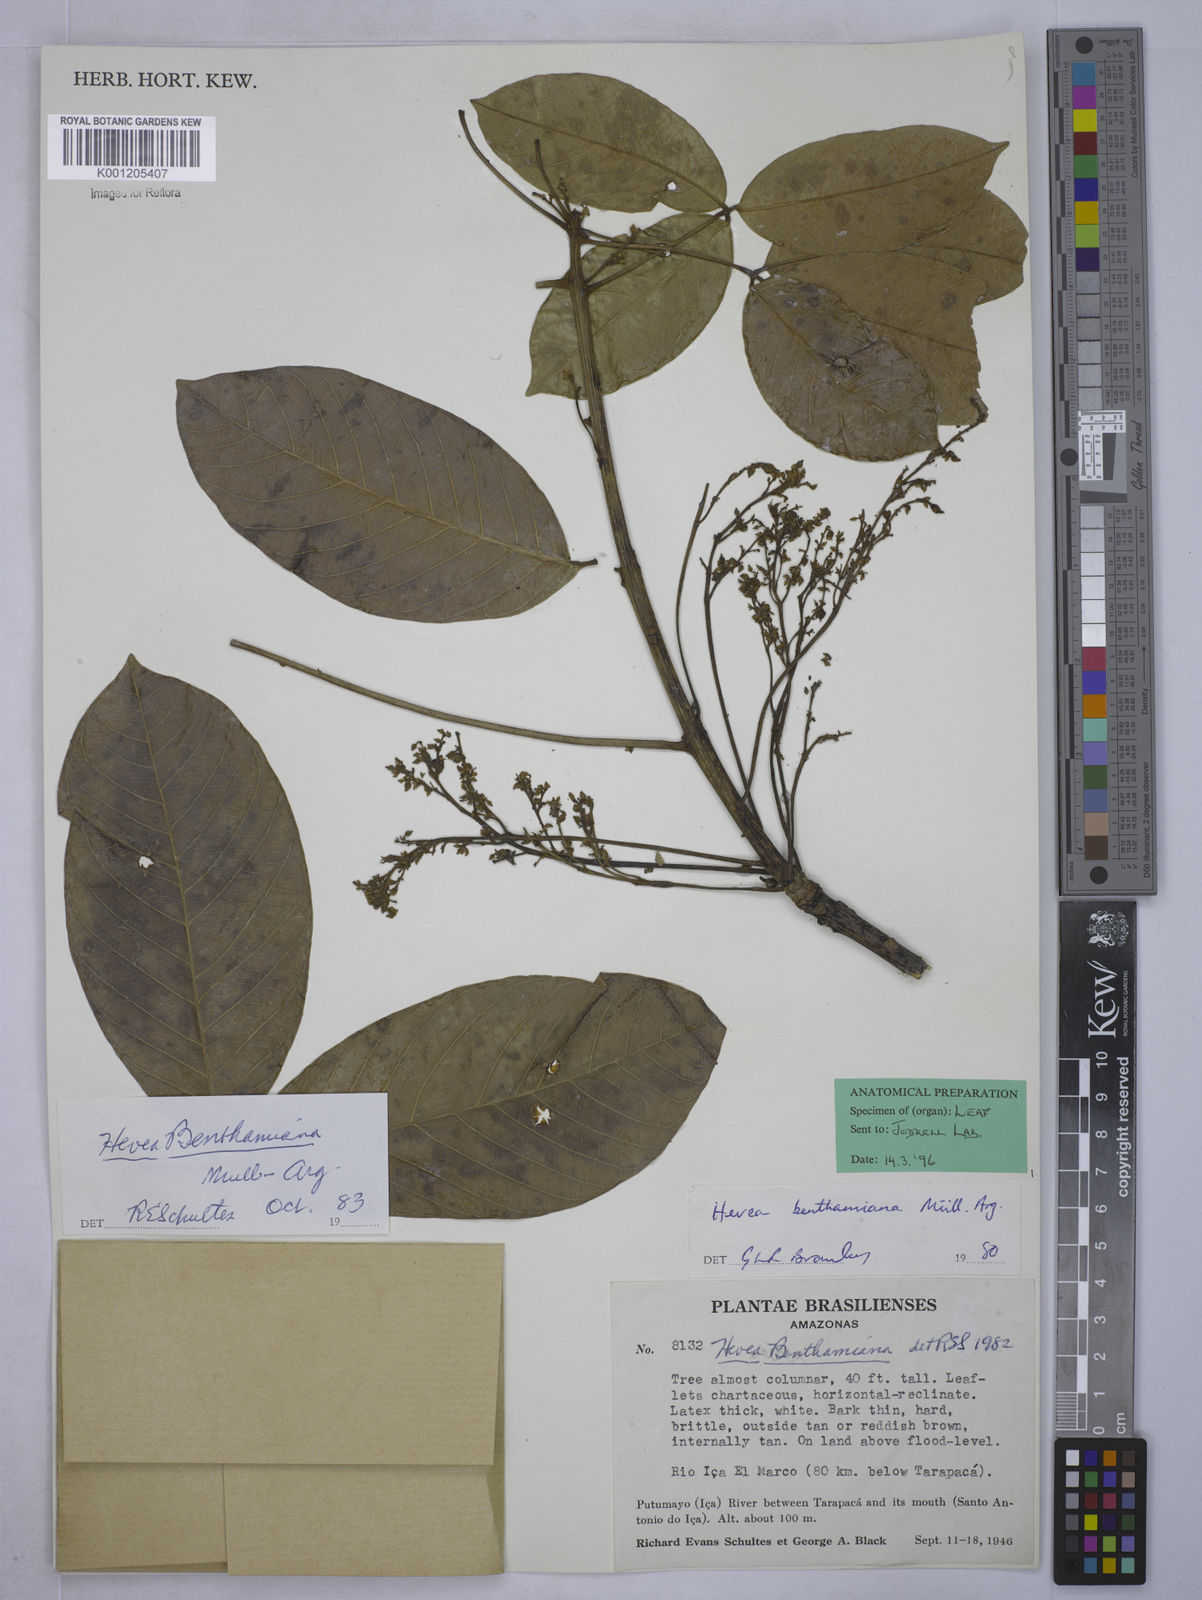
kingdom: Plantae
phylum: Tracheophyta
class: Magnoliopsida
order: Malpighiales
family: Euphorbiaceae
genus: Hevea
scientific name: Hevea
